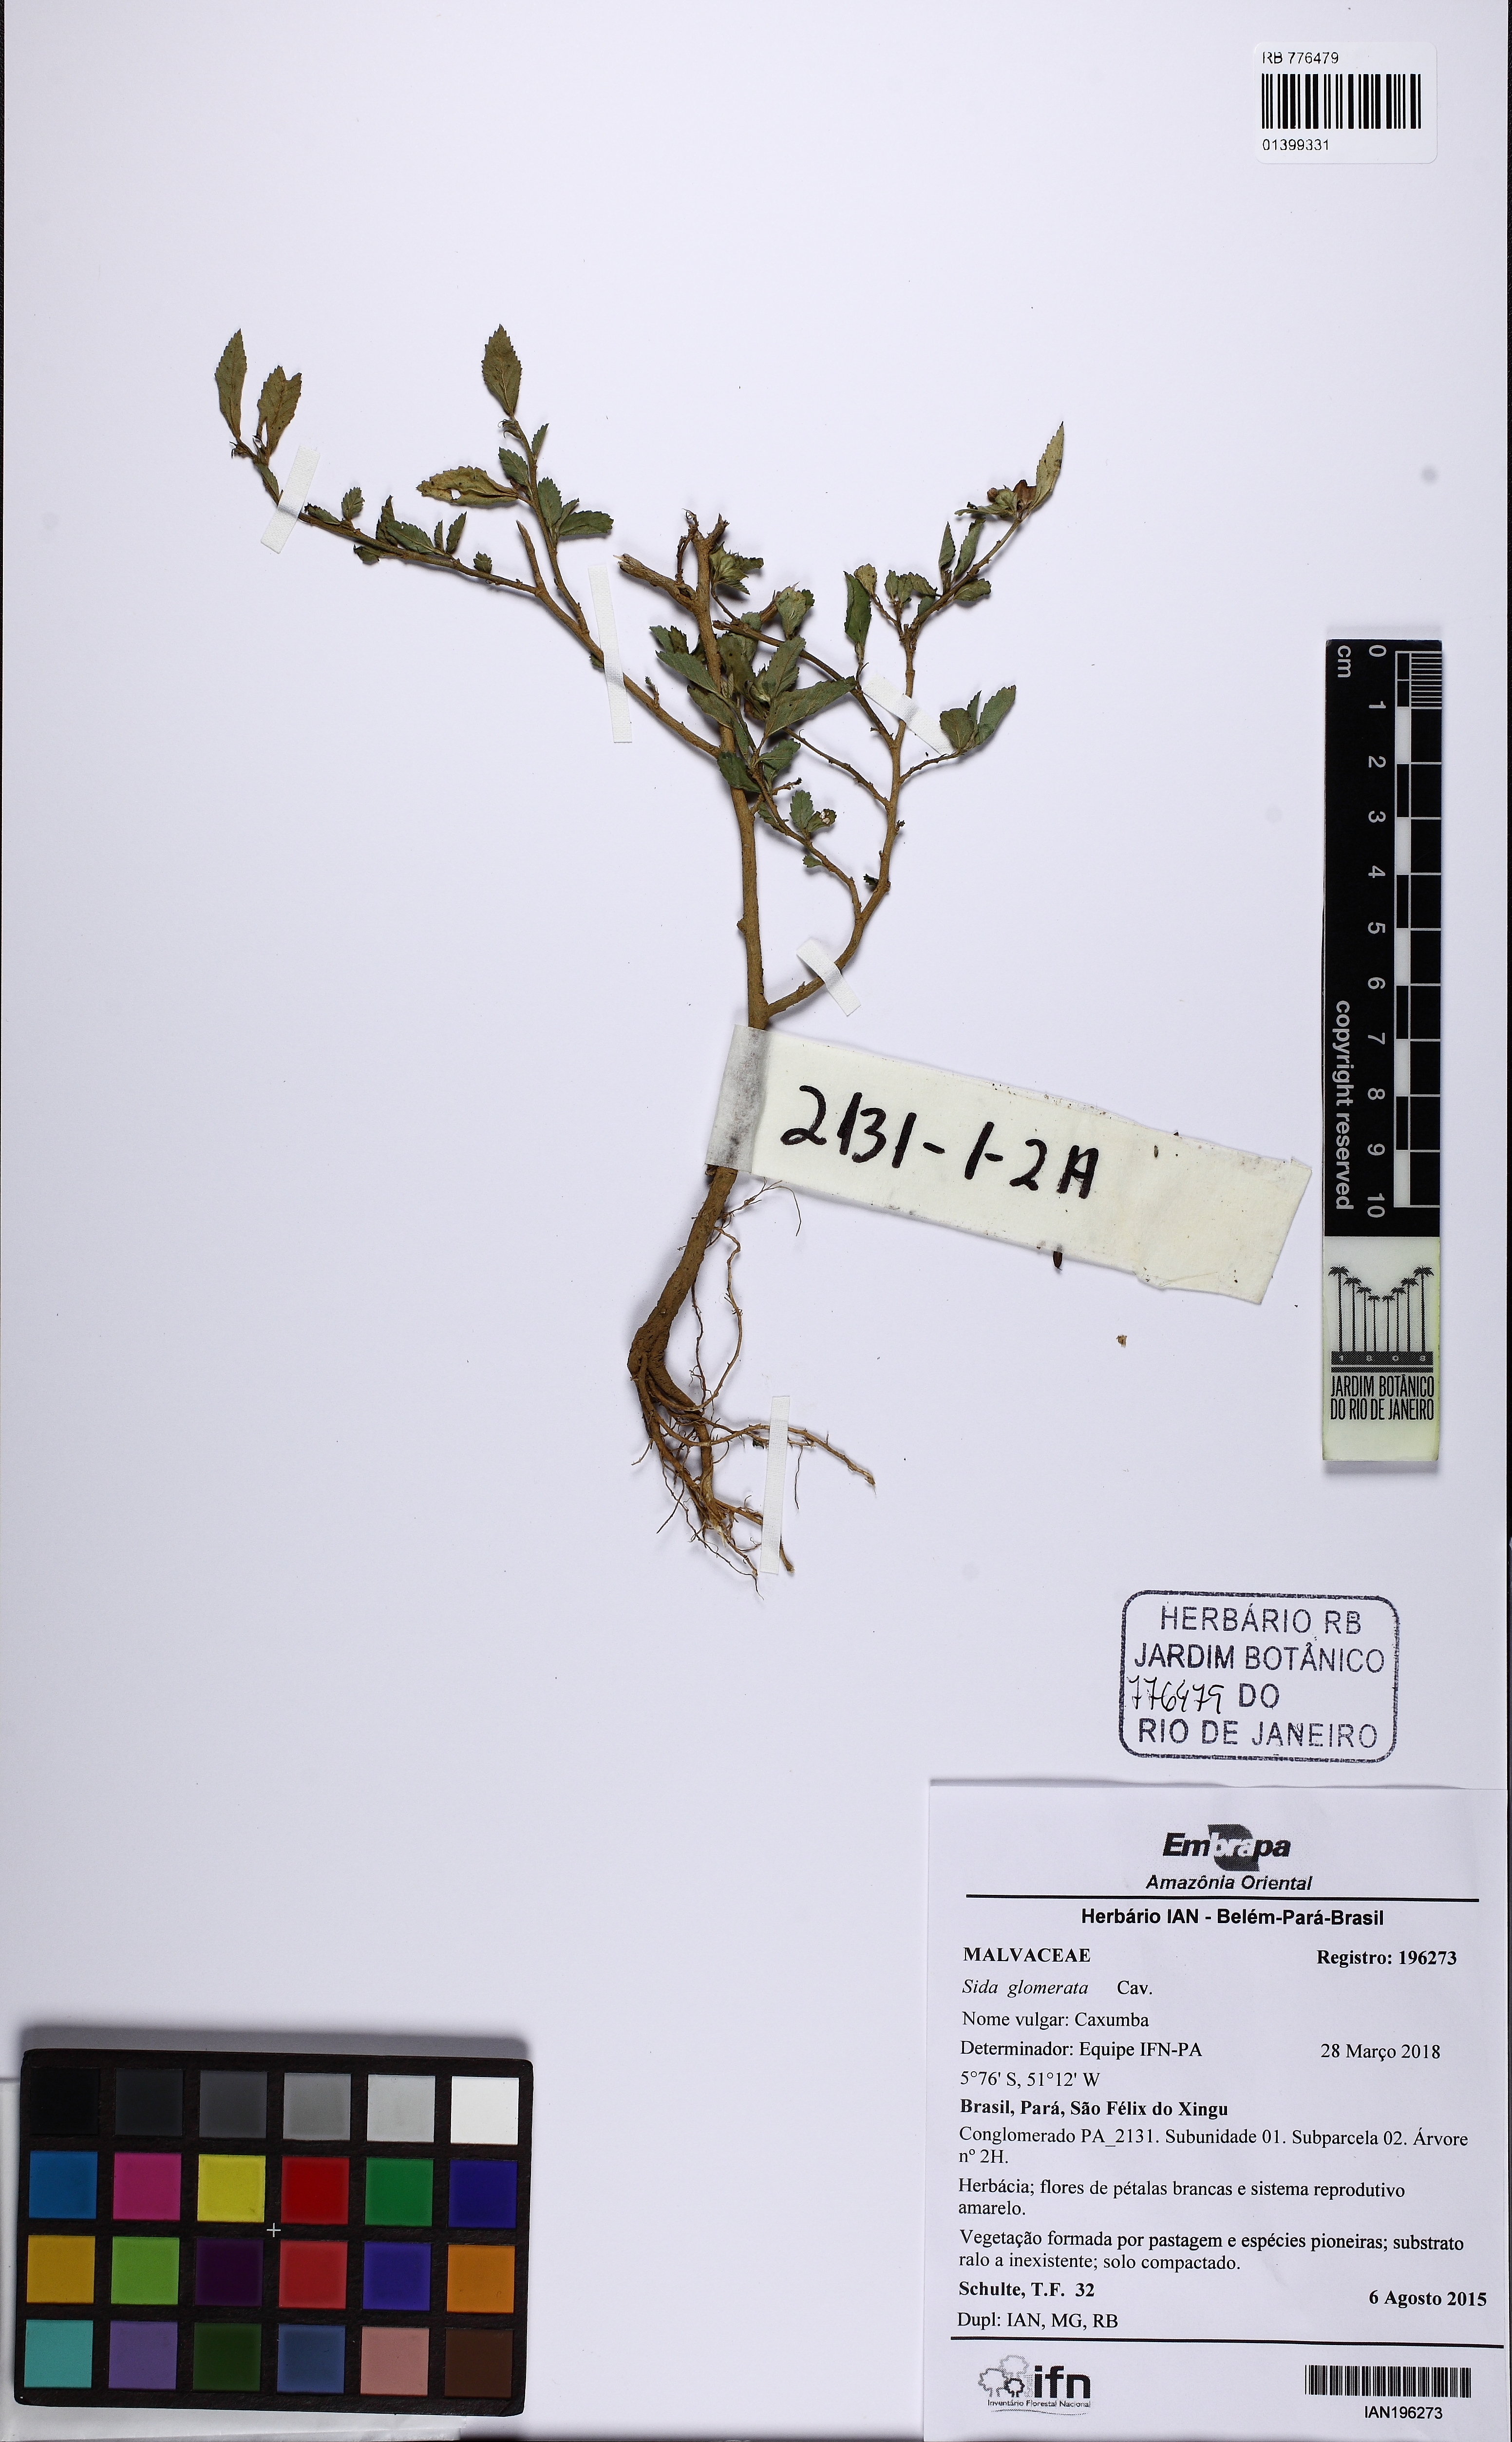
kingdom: Plantae
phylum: Tracheophyta
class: Magnoliopsida
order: Malvales
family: Malvaceae
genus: Sida
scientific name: Sida glomerata
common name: Clustered fanpetals
